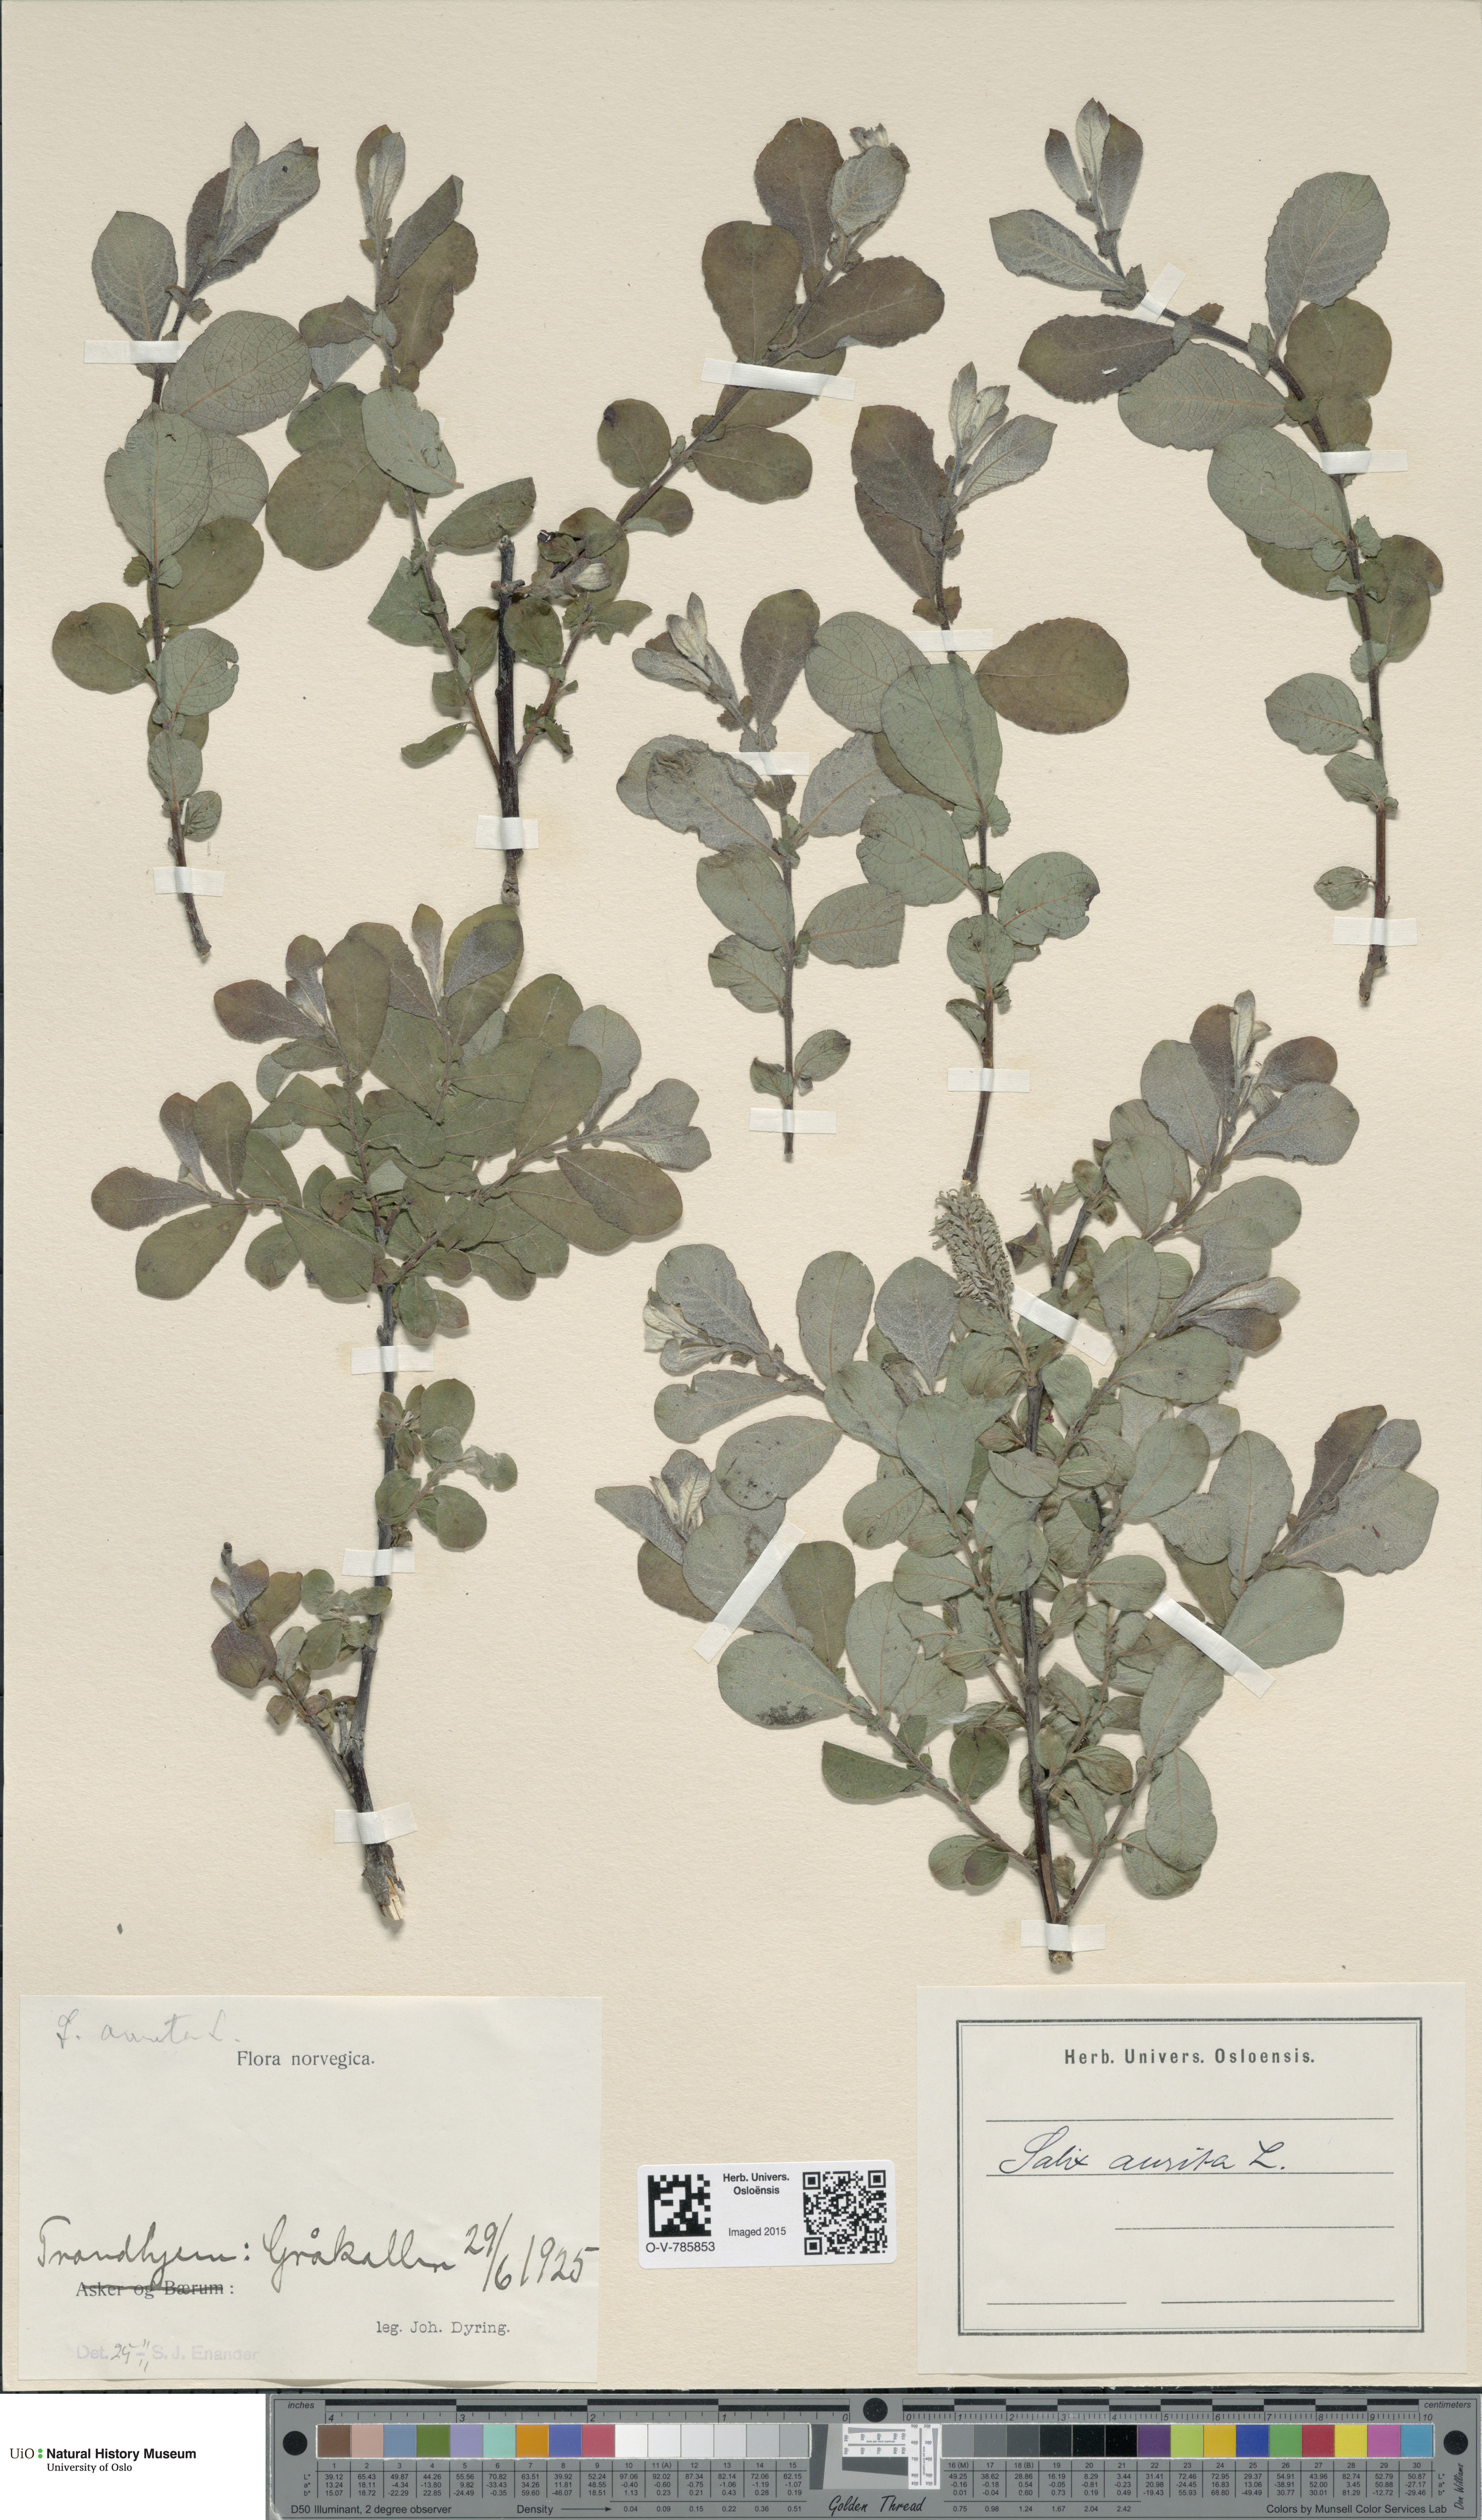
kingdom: Plantae
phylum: Tracheophyta
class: Magnoliopsida
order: Malpighiales
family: Salicaceae
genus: Salix
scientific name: Salix aurita
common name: Eared willow
